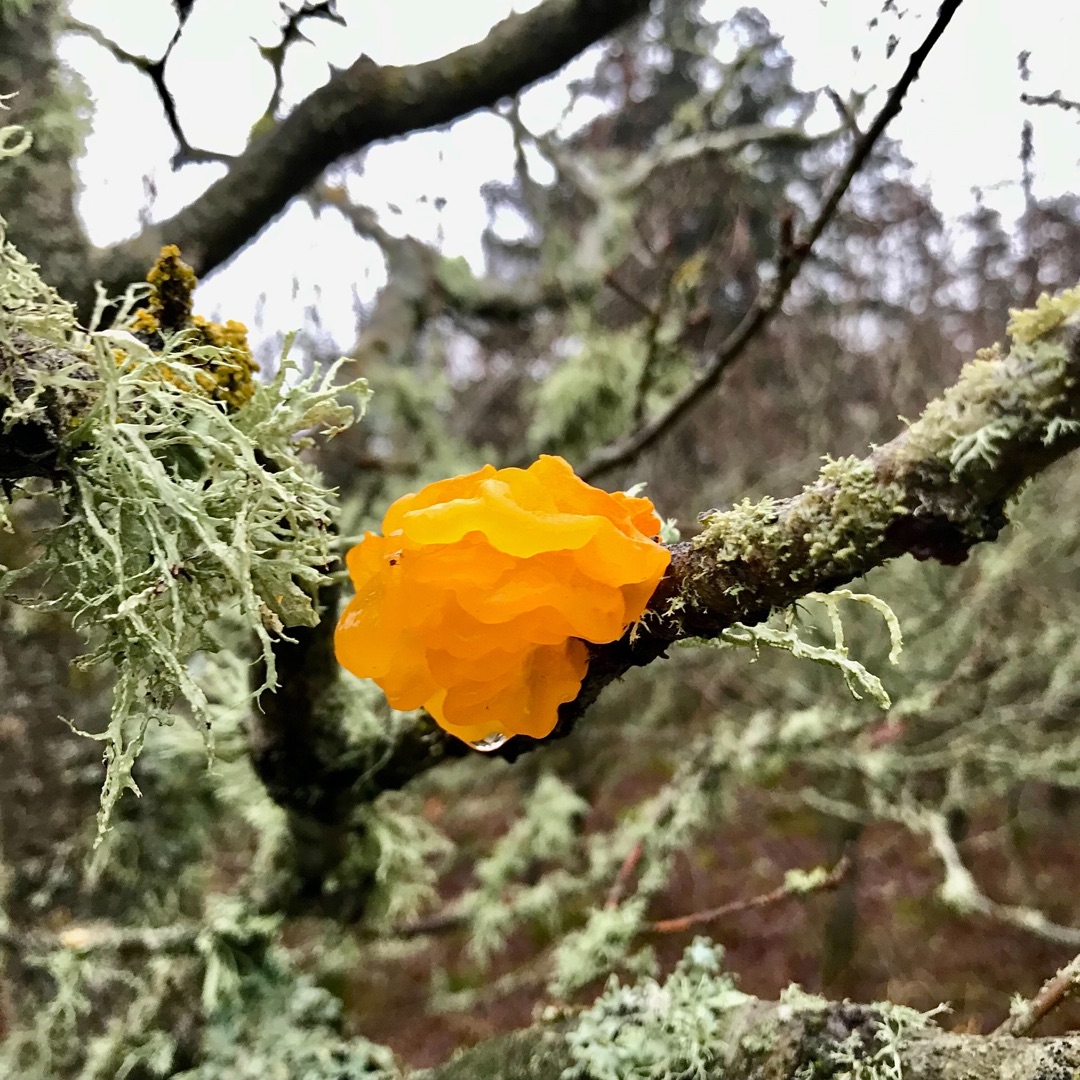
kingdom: Fungi
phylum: Basidiomycota
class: Tremellomycetes
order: Tremellales
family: Tremellaceae
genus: Tremella
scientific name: Tremella mesenterica
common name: Gul bævresvamp
